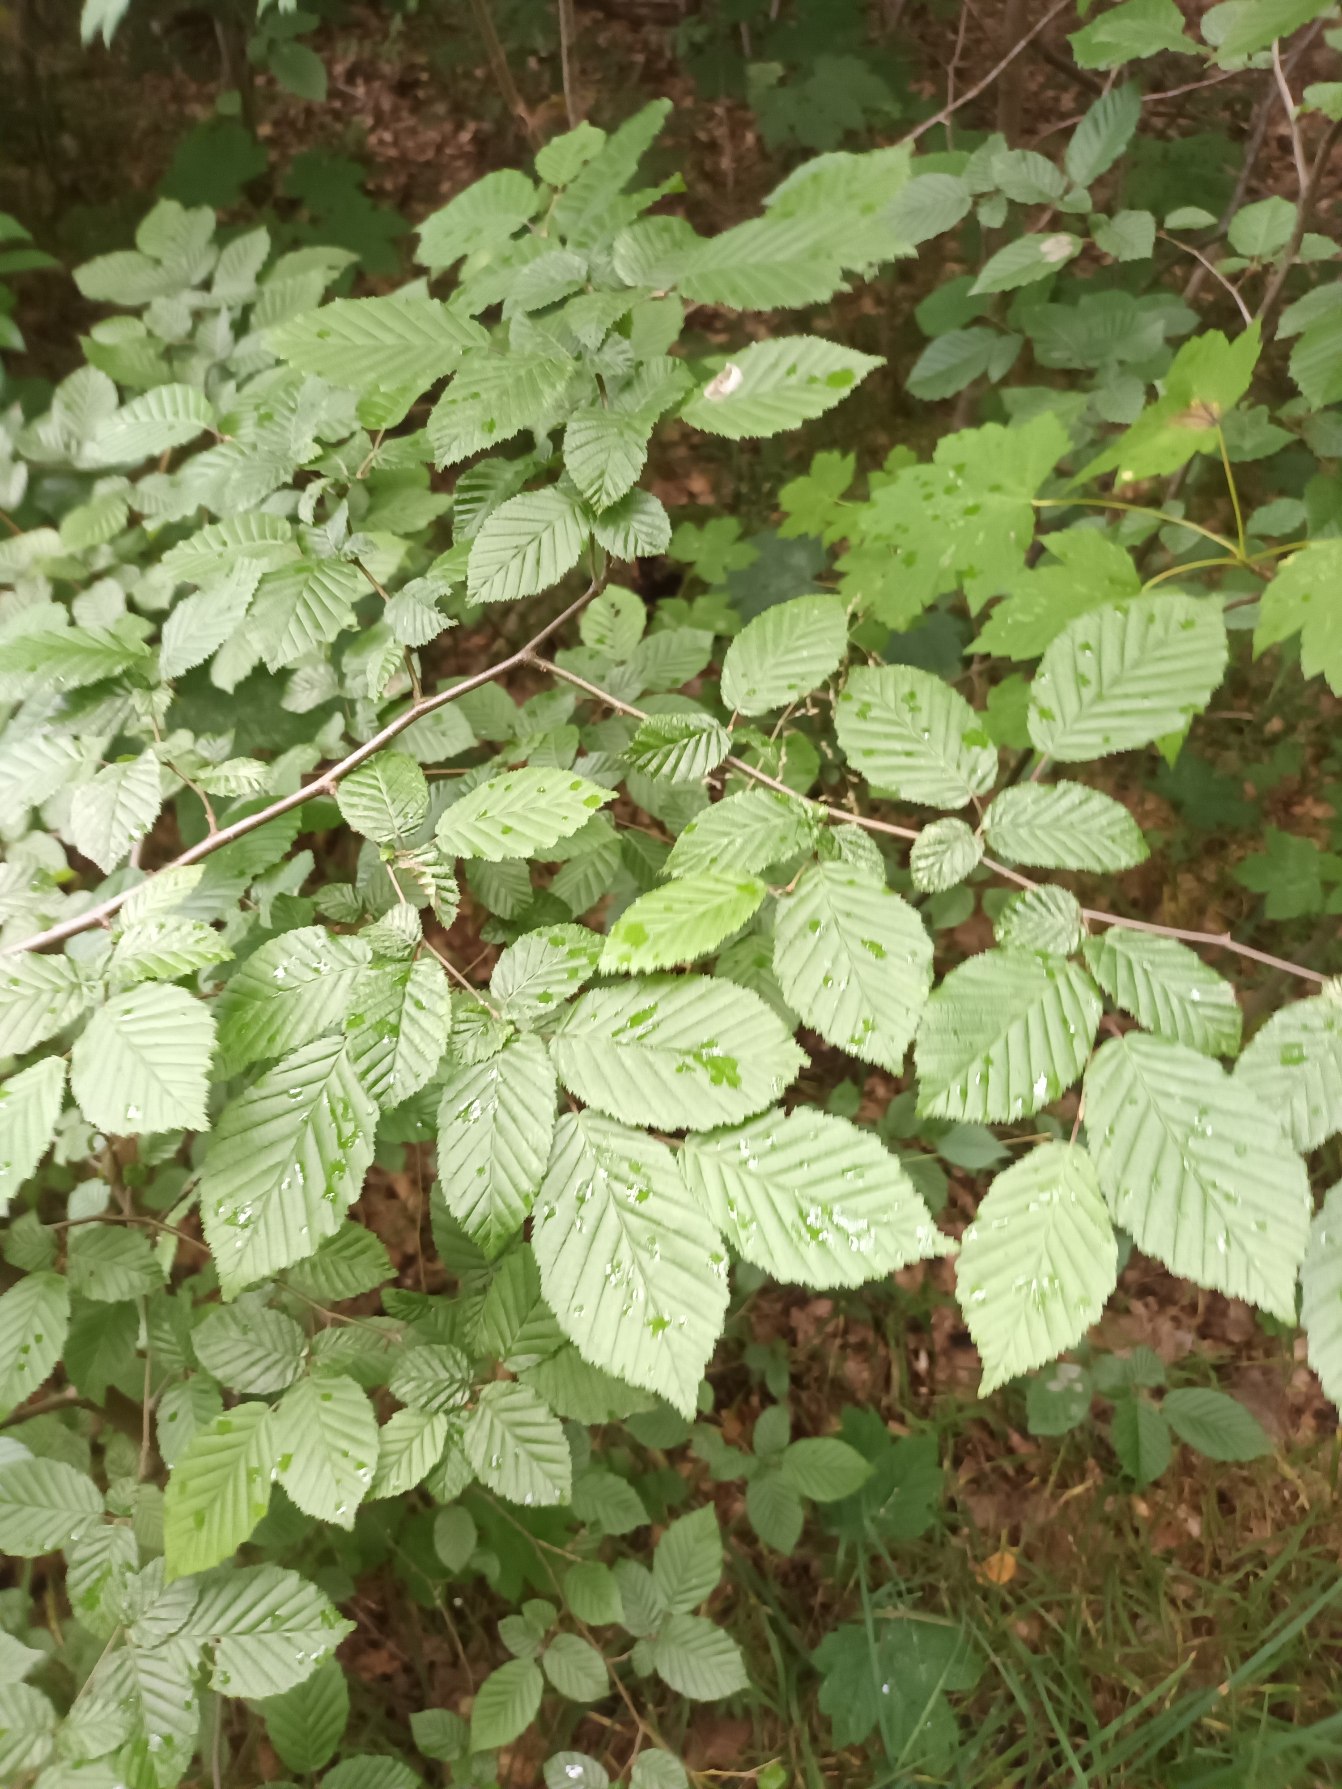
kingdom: Plantae
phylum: Tracheophyta
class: Magnoliopsida
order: Fagales
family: Betulaceae
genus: Carpinus
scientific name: Carpinus betulus
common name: Avnbøg
